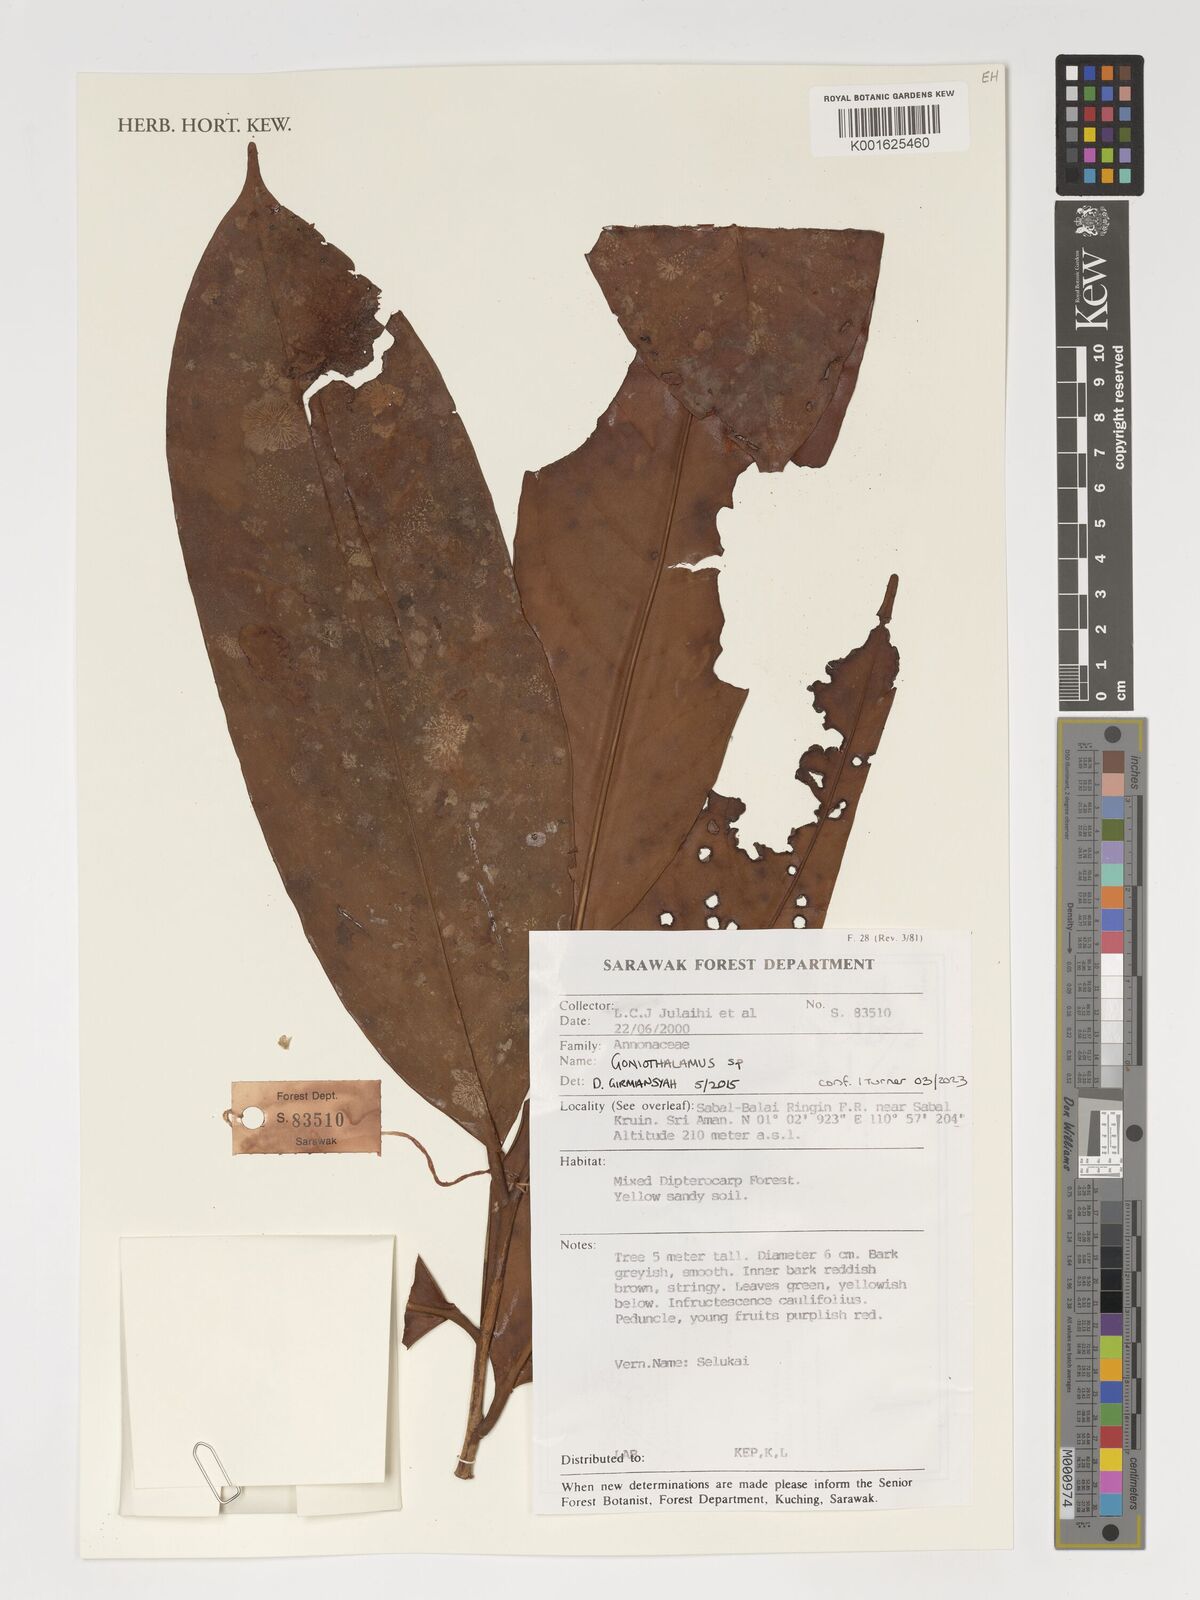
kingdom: Plantae
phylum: Tracheophyta
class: Magnoliopsida
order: Magnoliales
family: Annonaceae
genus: Goniothalamus
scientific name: Goniothalamus
